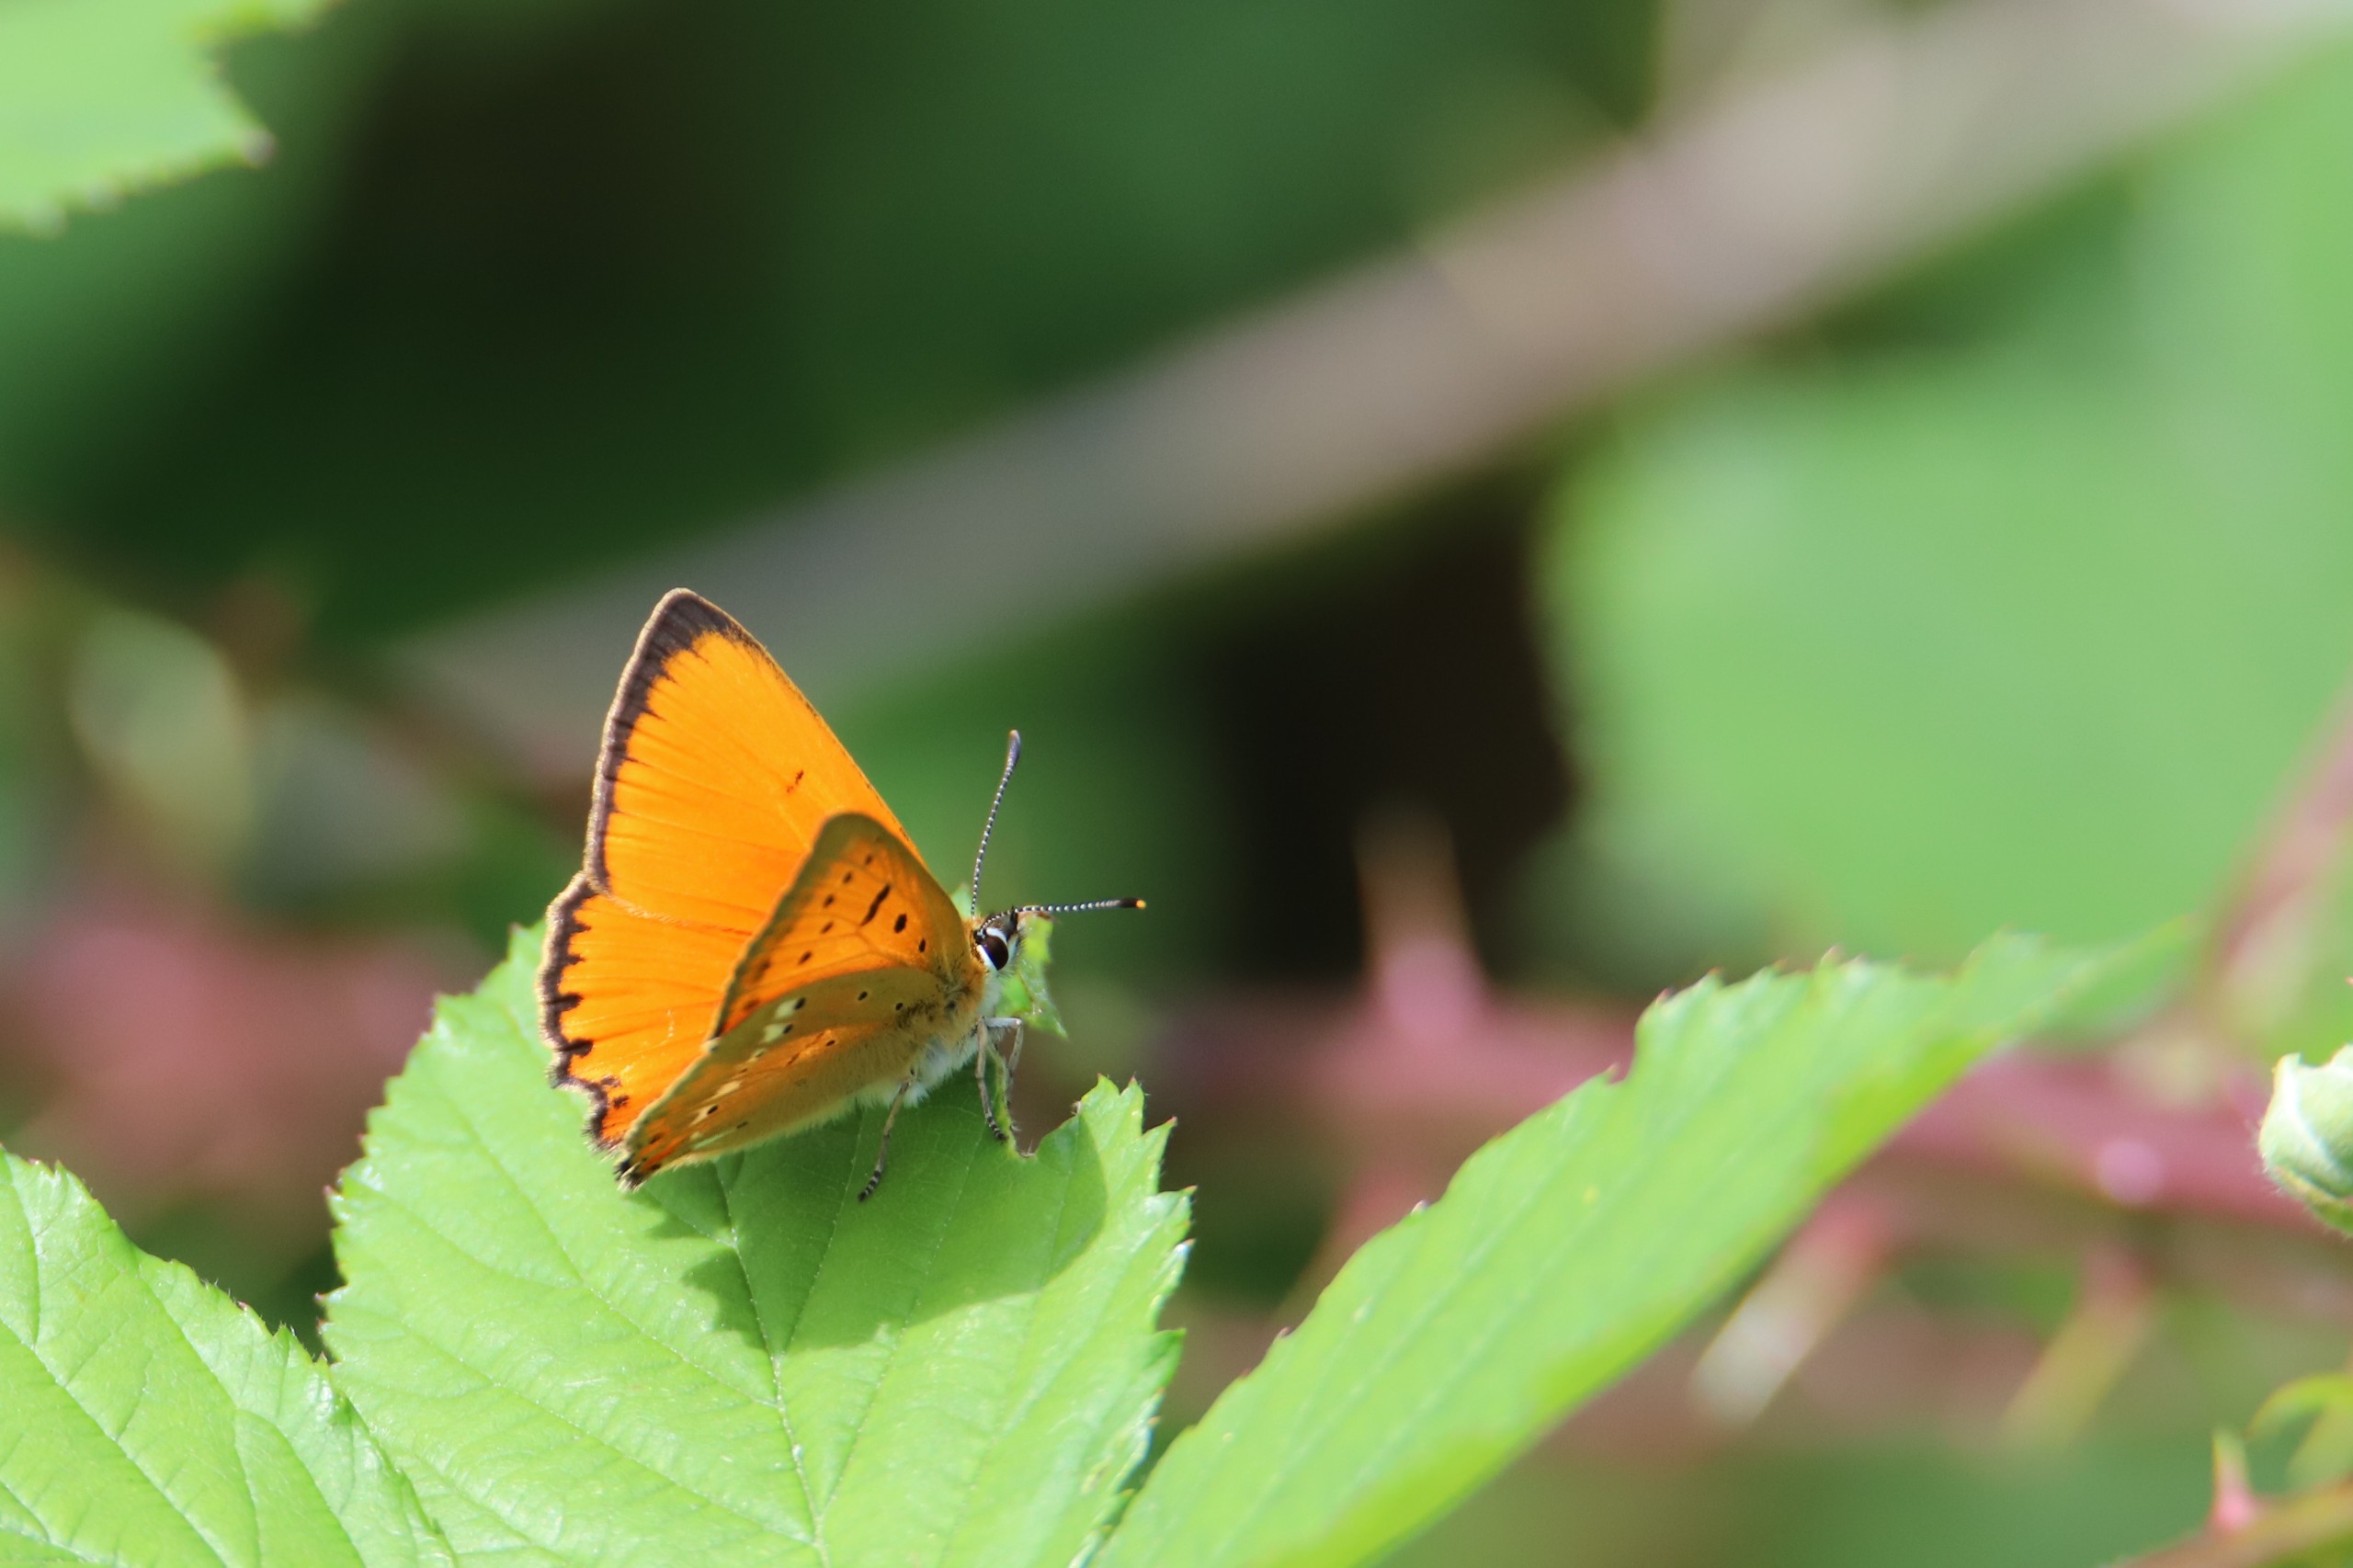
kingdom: Animalia
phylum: Arthropoda
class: Insecta
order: Lepidoptera
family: Lycaenidae
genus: Lycaena
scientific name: Lycaena virgaureae
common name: Dukatsommerfugl
